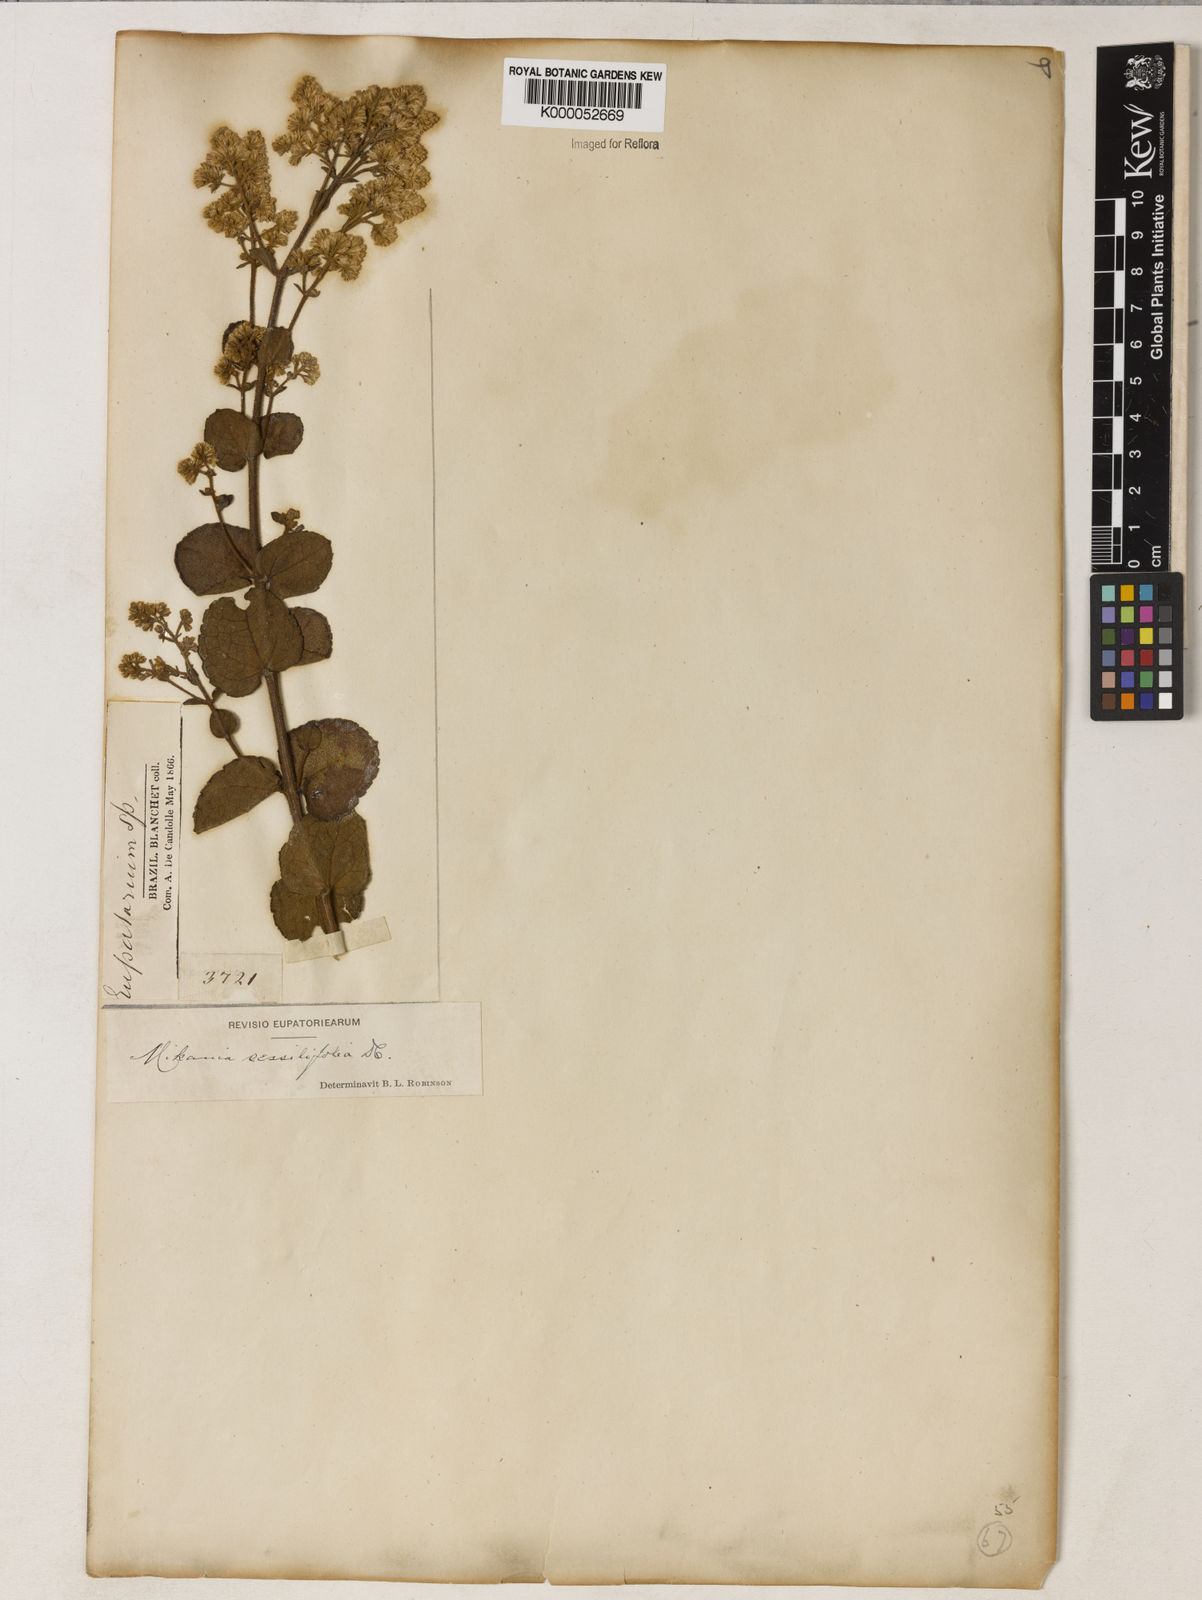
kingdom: Plantae
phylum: Tracheophyta
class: Magnoliopsida
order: Asterales
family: Asteraceae
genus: Mikania
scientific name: Mikania sessilifolia
